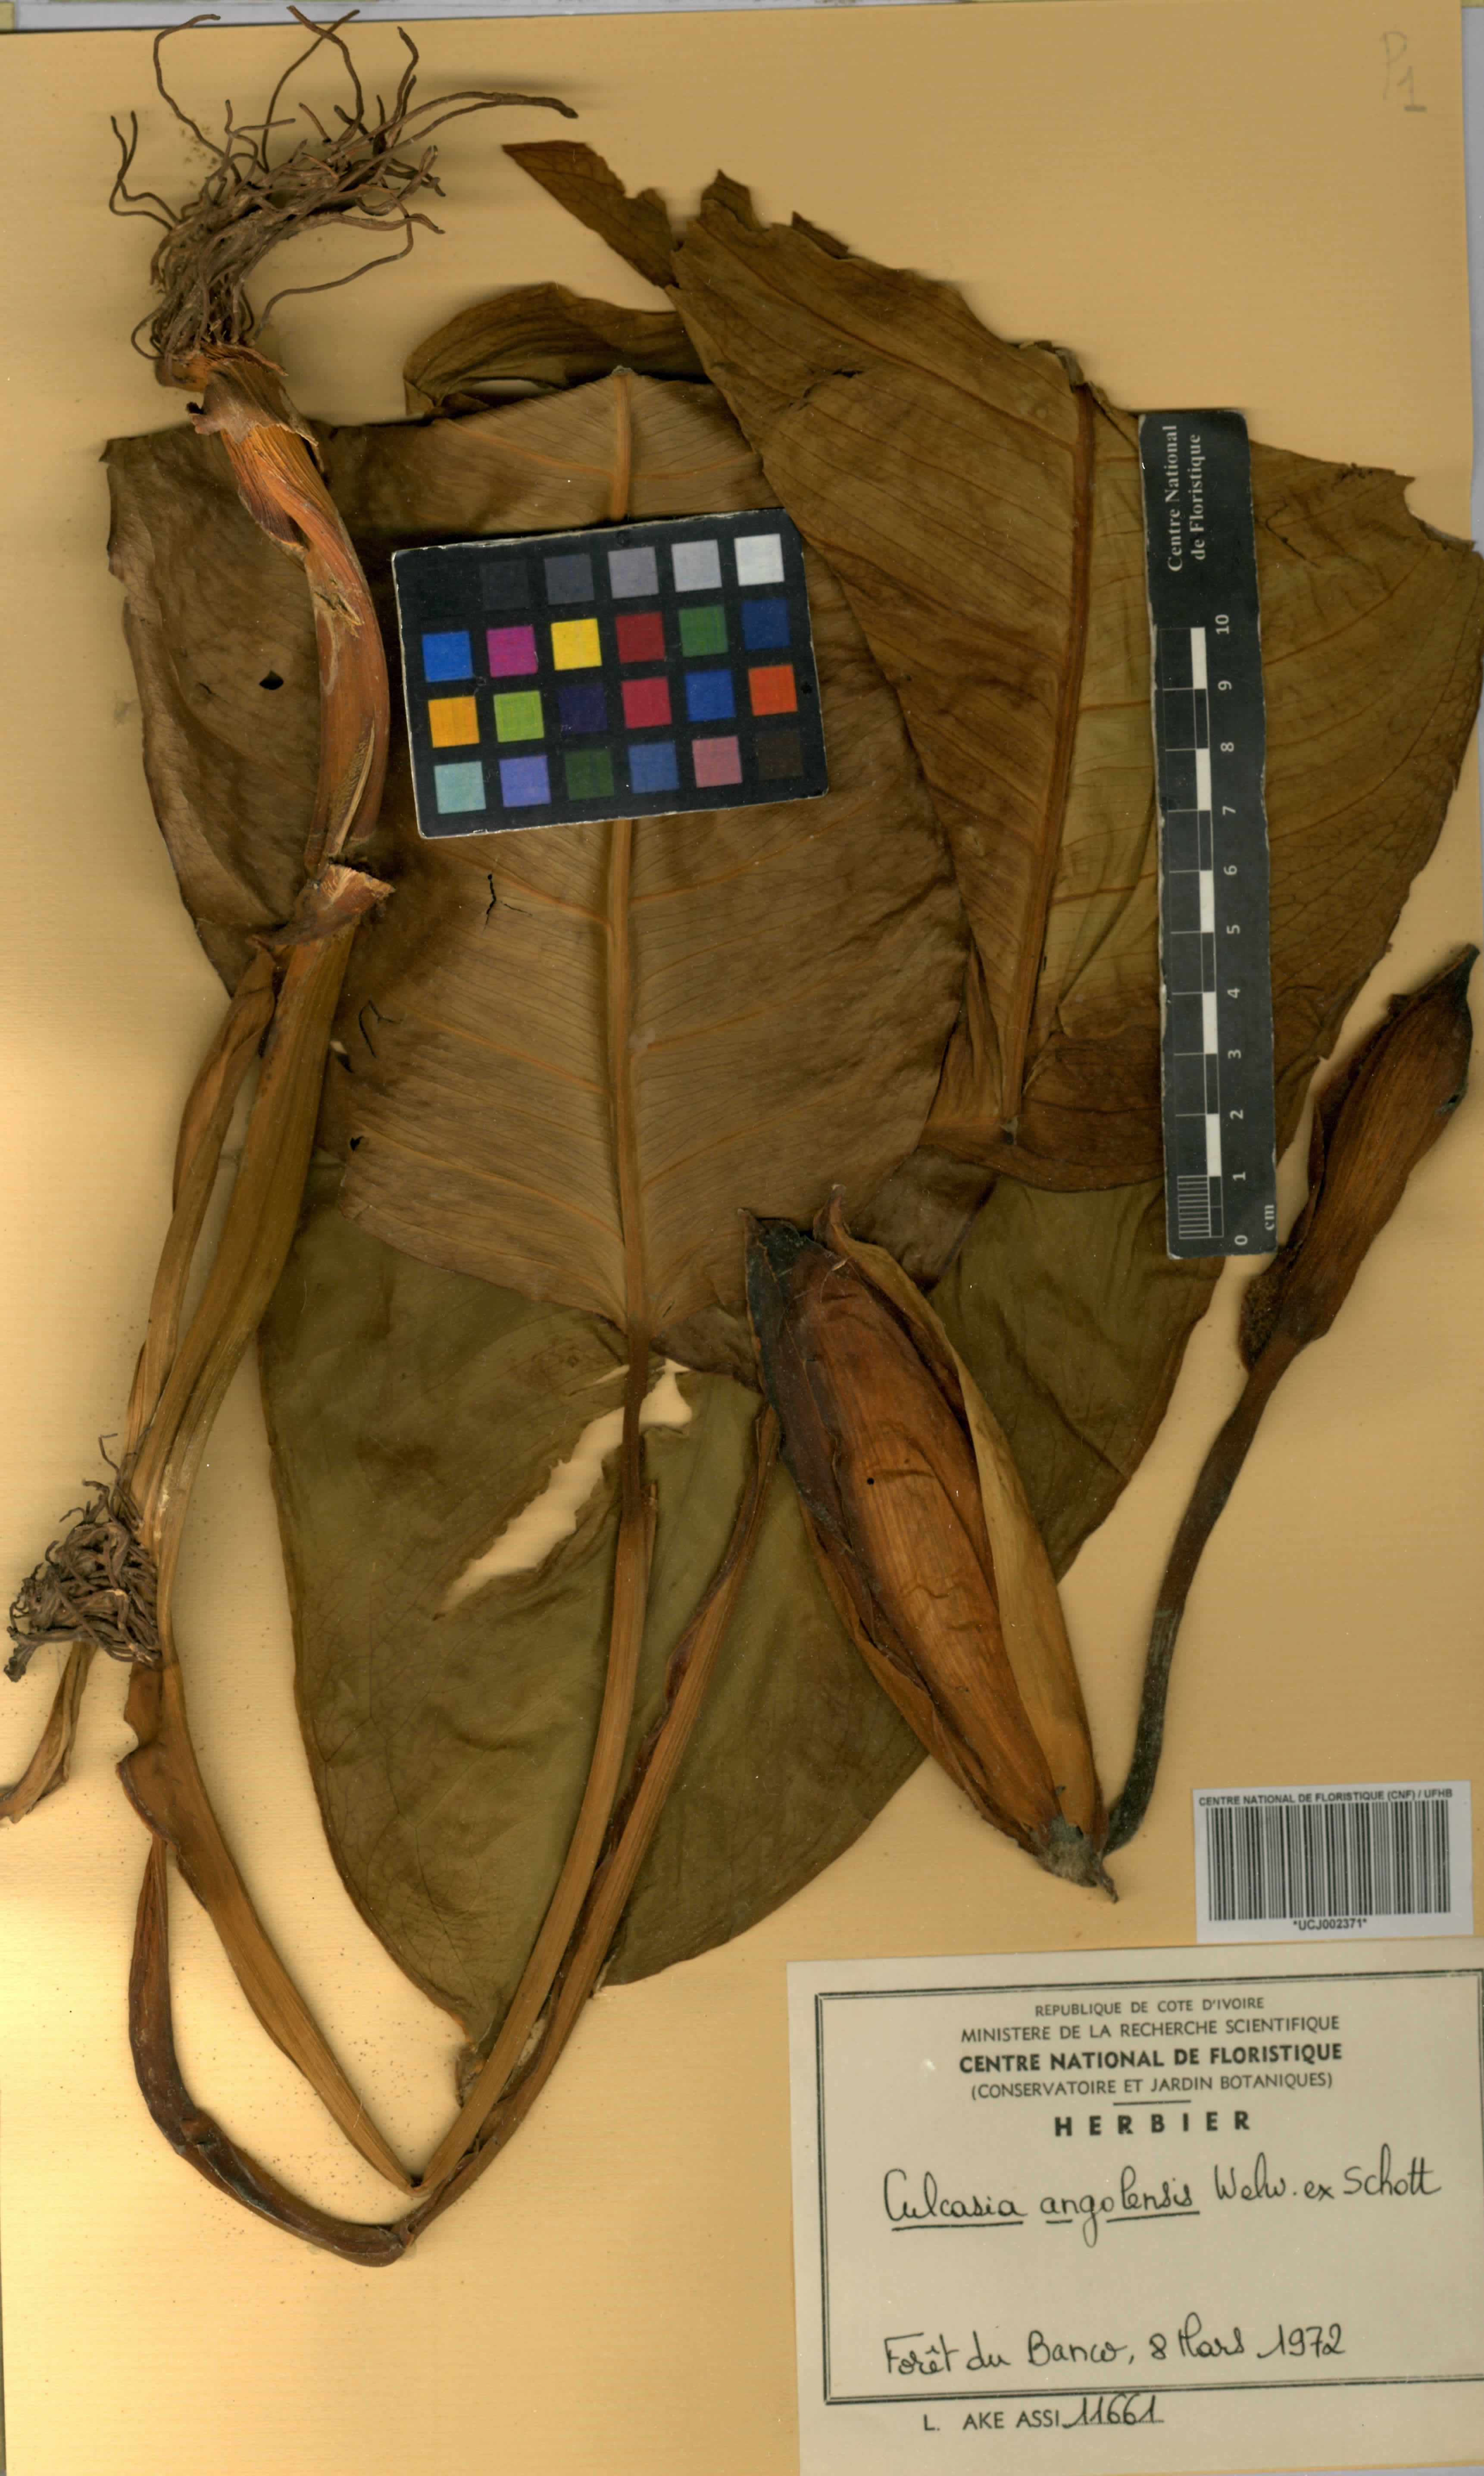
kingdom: Plantae
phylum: Tracheophyta
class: Liliopsida
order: Alismatales
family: Araceae
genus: Culcasia
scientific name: Culcasia angolensis
